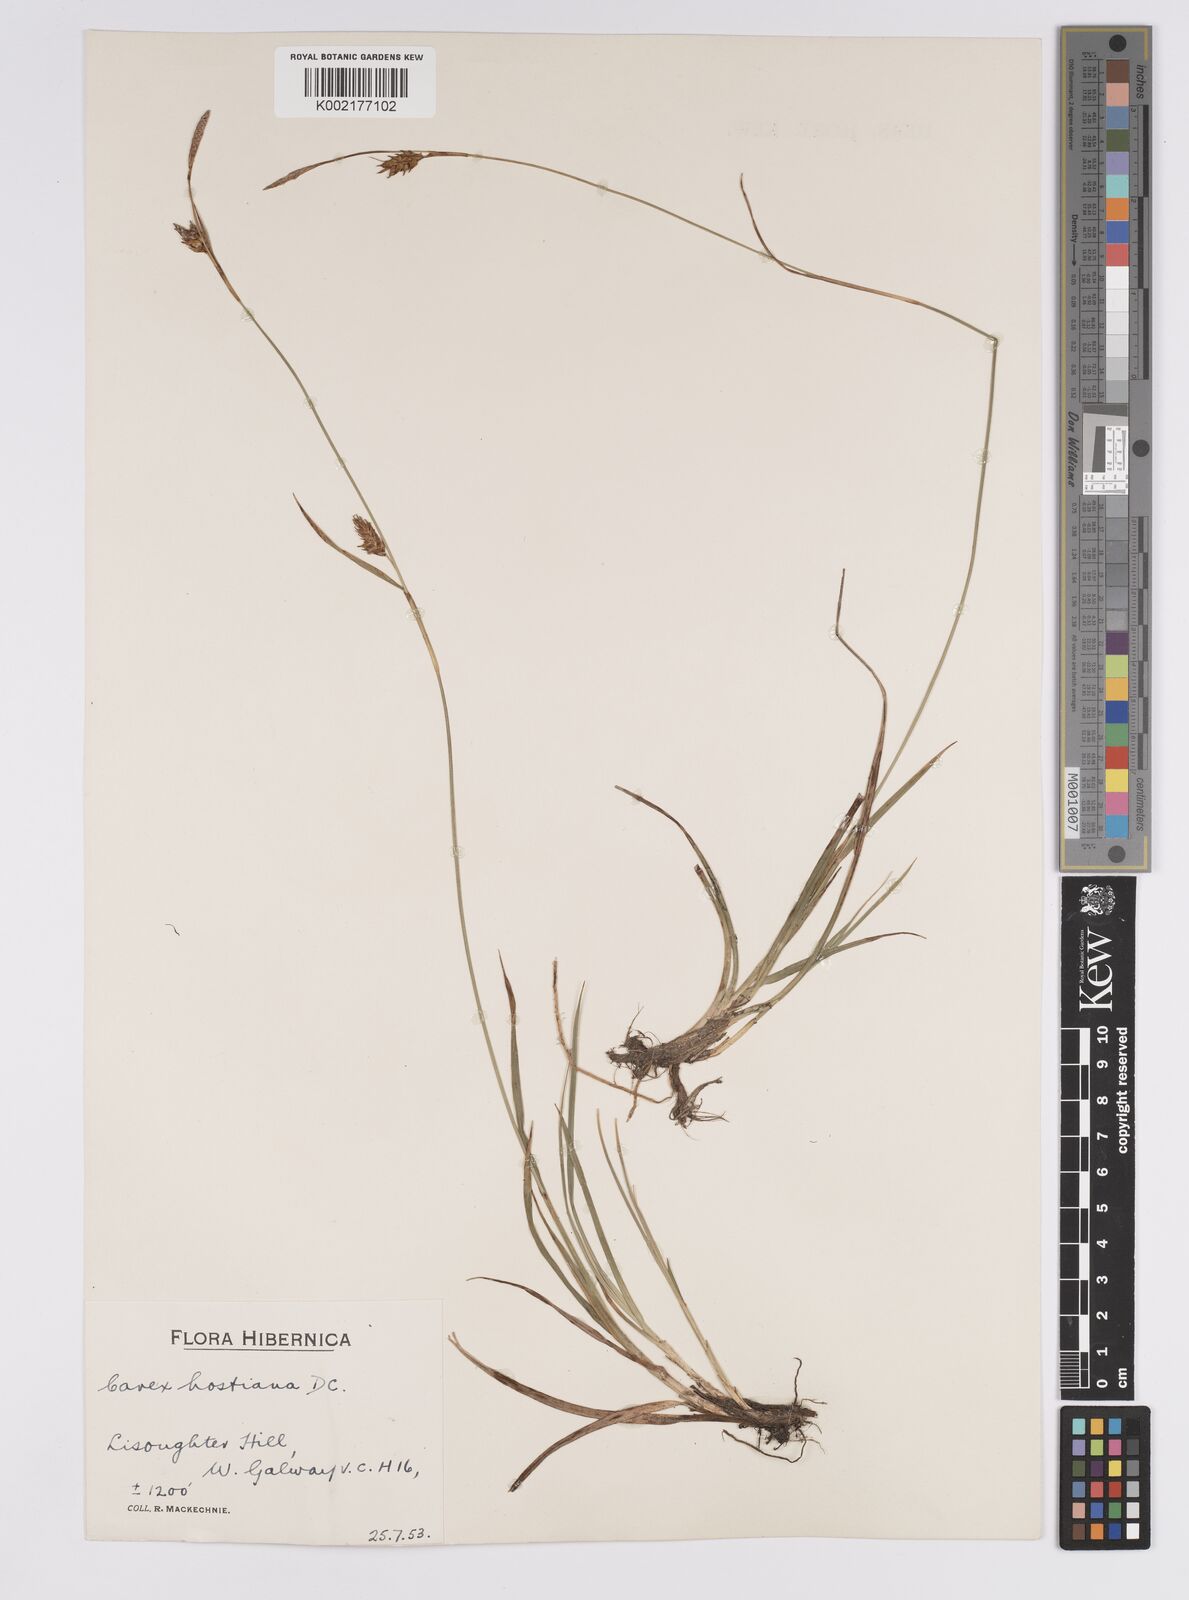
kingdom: Plantae
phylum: Tracheophyta
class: Liliopsida
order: Poales
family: Cyperaceae
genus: Carex
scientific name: Carex hostiana
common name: Tawny sedge
